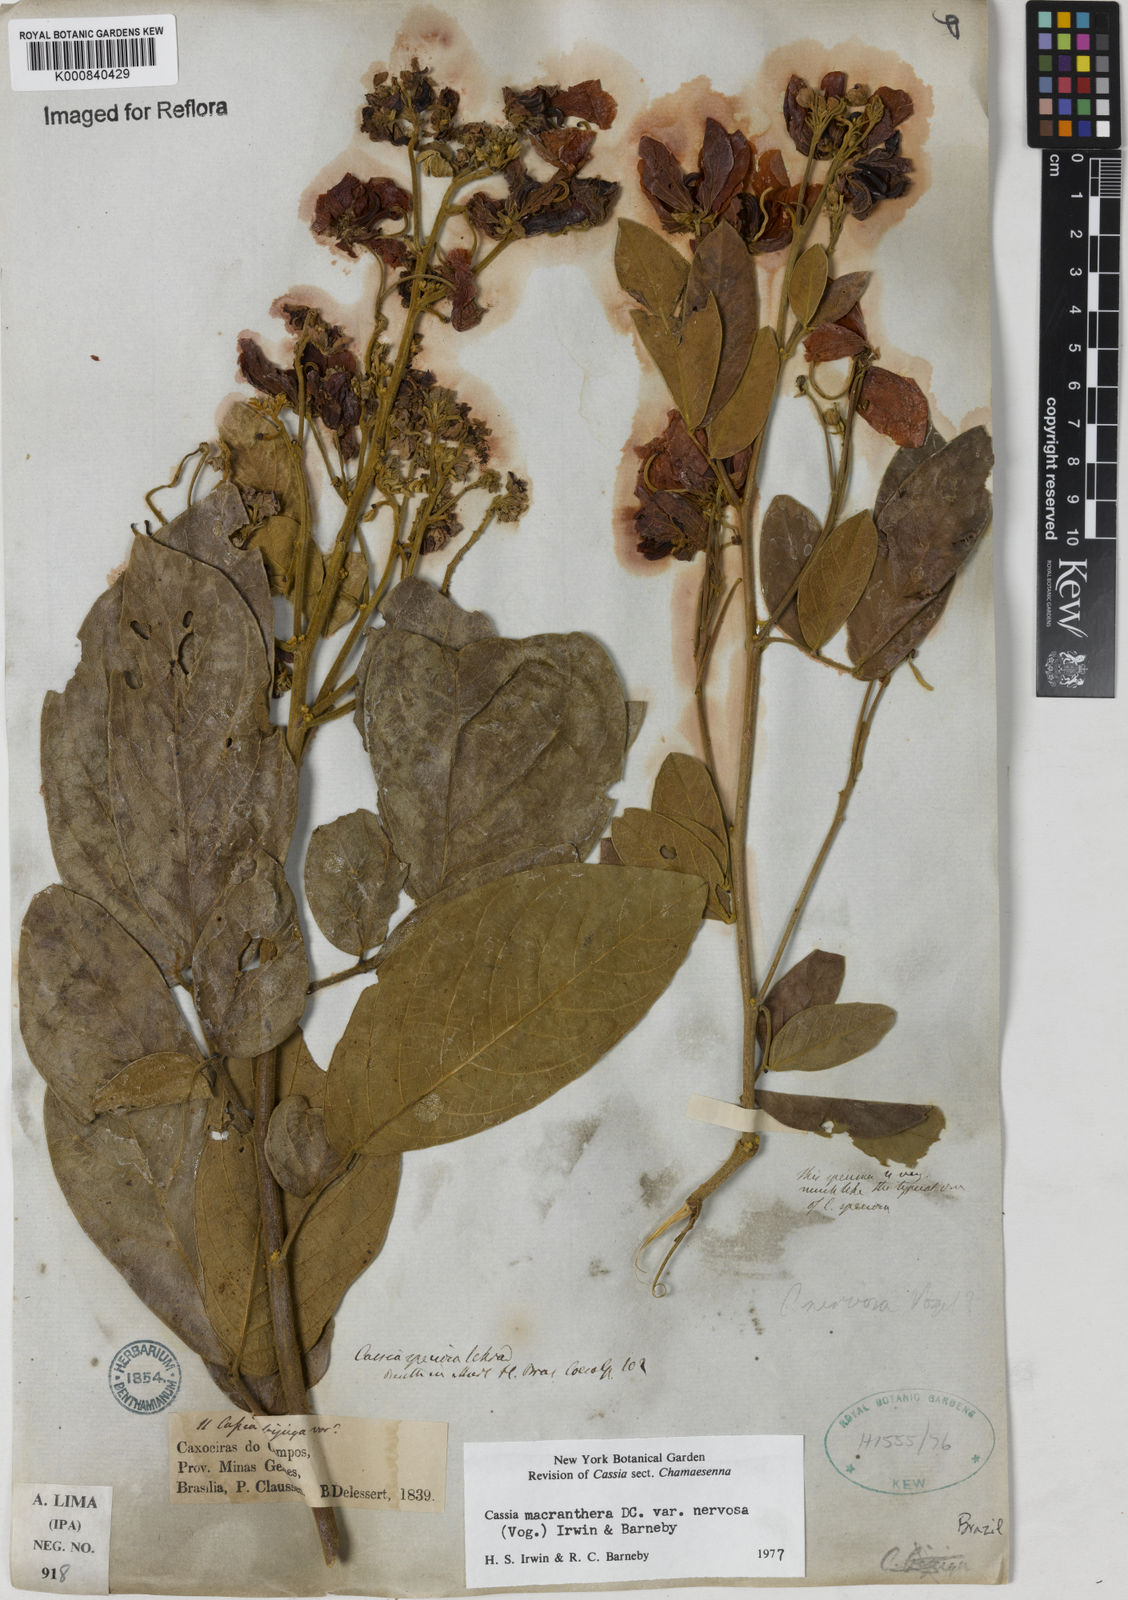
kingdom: Plantae
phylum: Tracheophyta
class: Magnoliopsida
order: Fabales
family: Fabaceae
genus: Senna
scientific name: Senna macranthera
